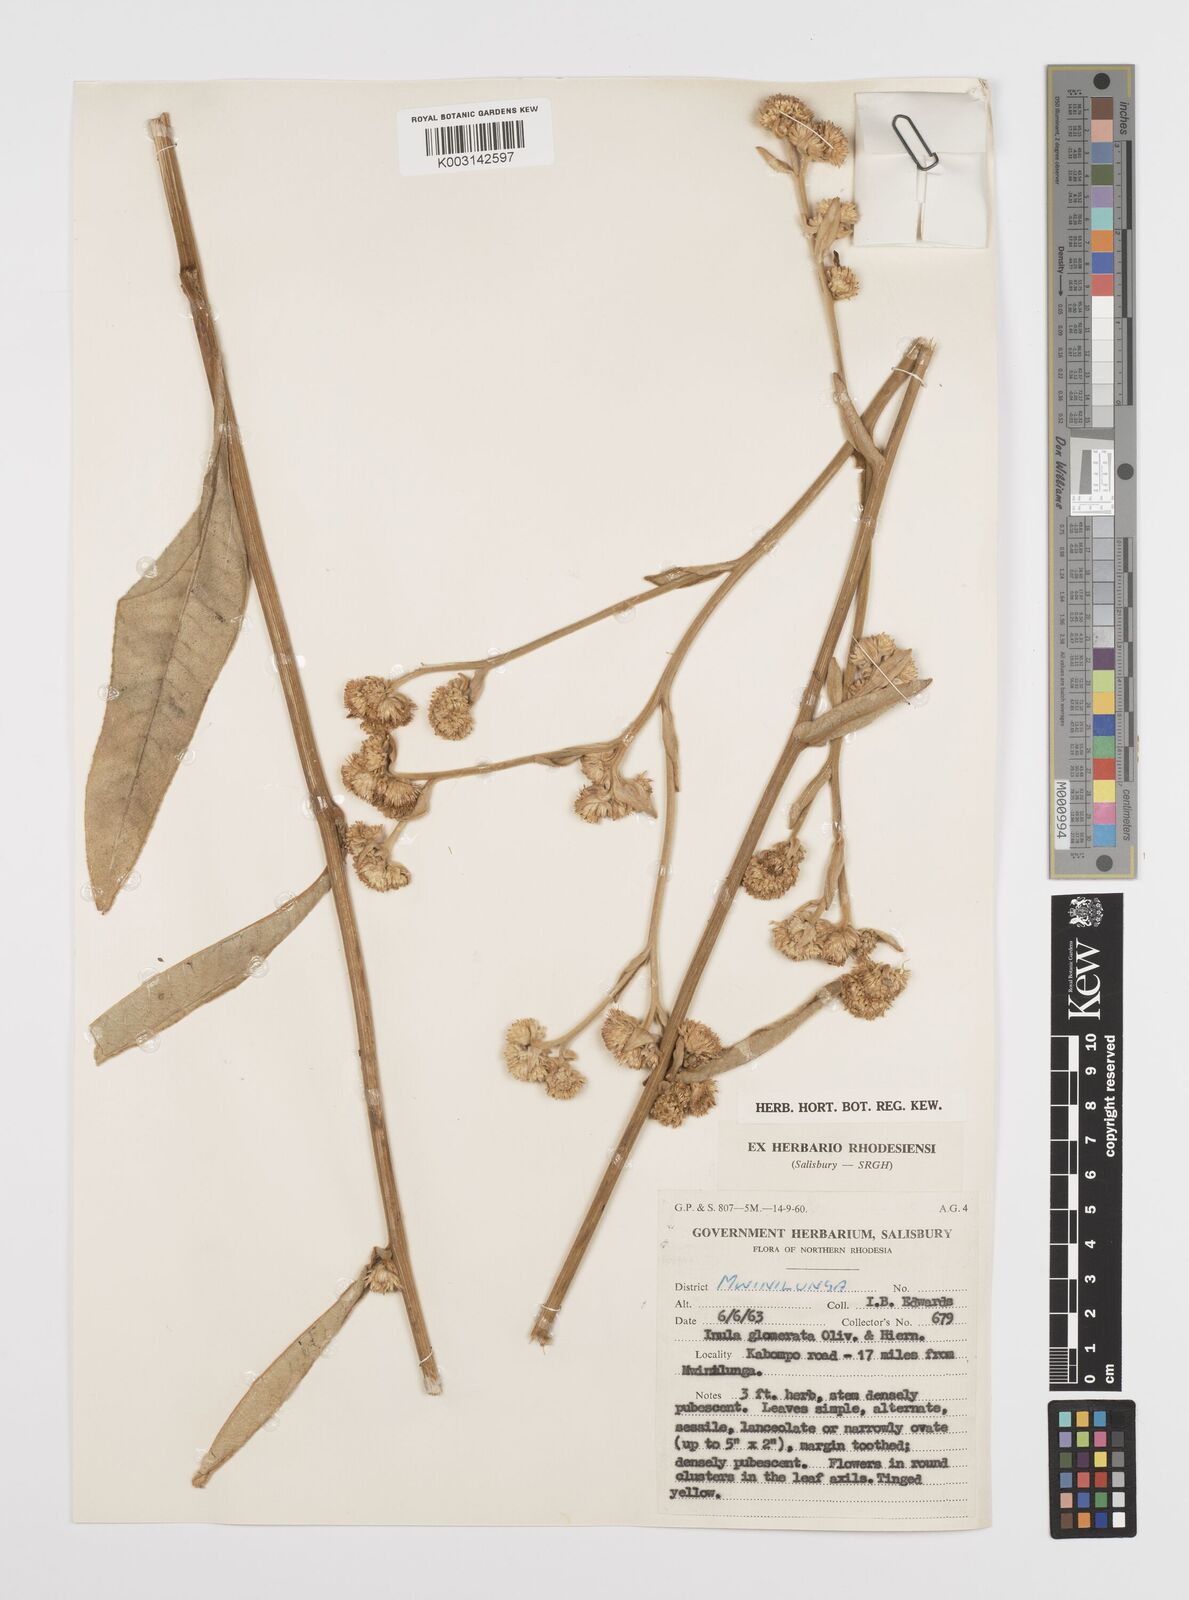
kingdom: Plantae
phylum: Tracheophyta
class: Magnoliopsida
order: Asterales
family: Asteraceae
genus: Inula
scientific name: Inula glomerata
